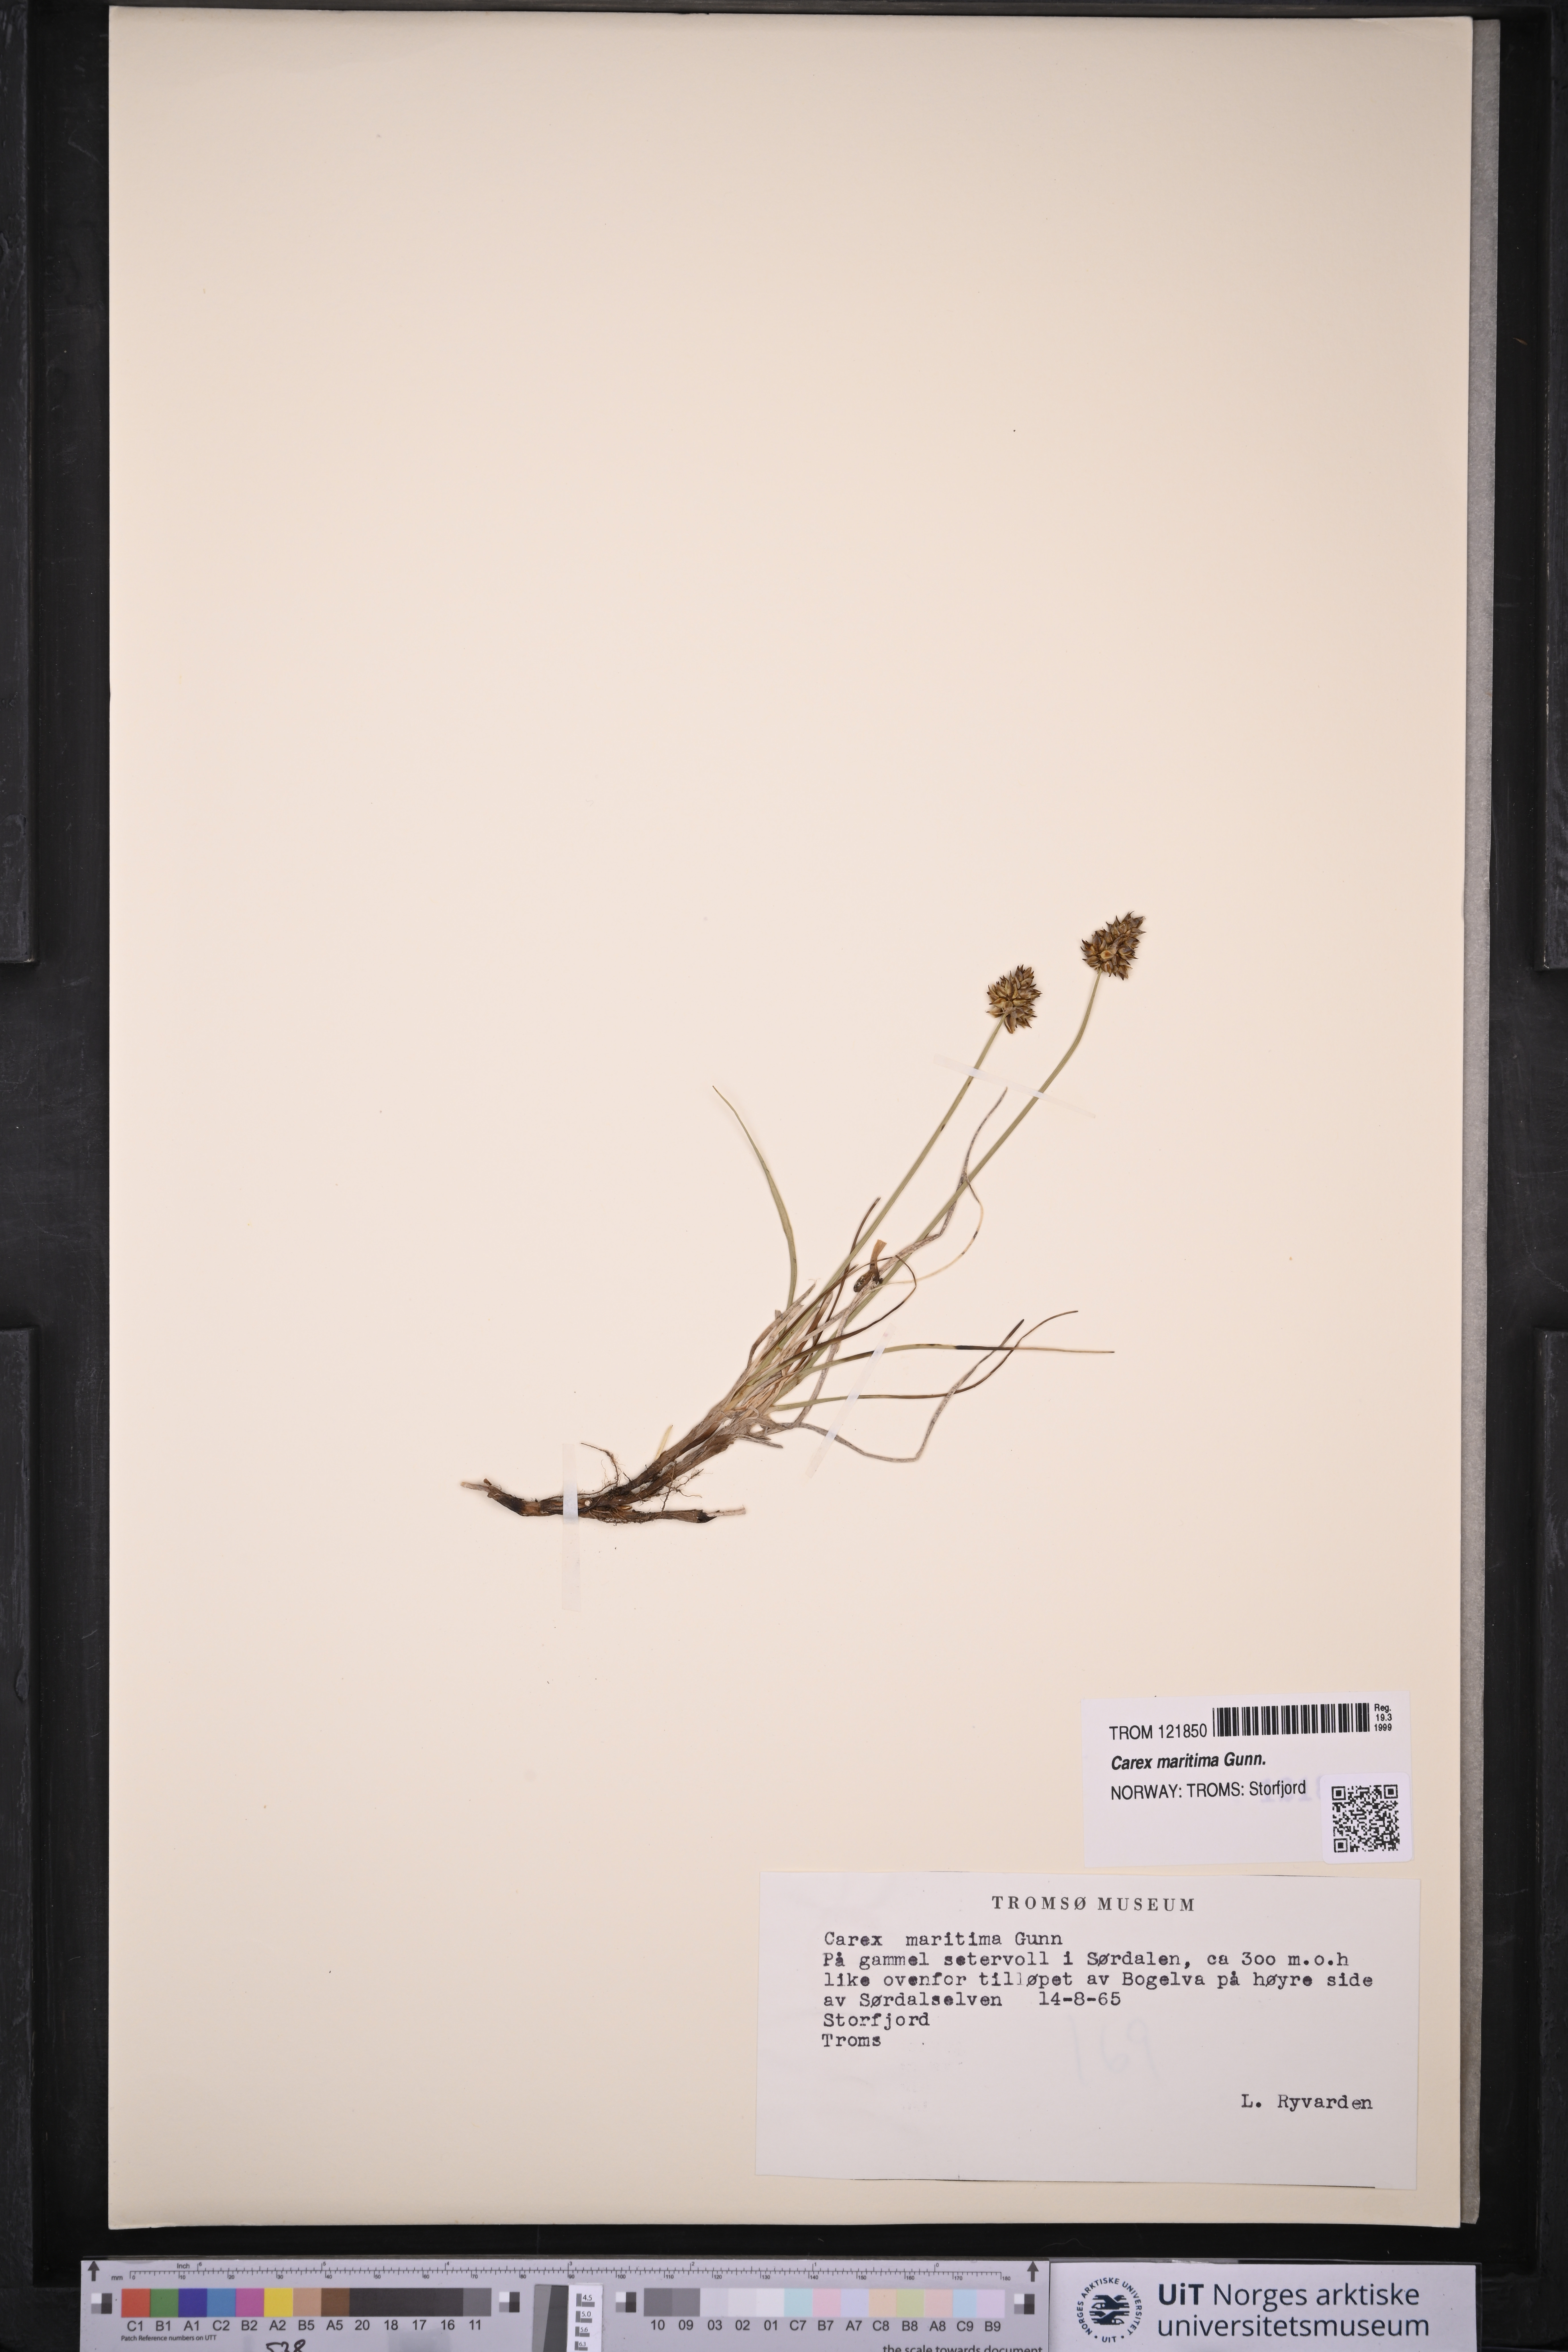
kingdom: Plantae
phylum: Tracheophyta
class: Liliopsida
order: Poales
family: Cyperaceae
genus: Carex
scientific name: Carex maritima
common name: Curved sedge
